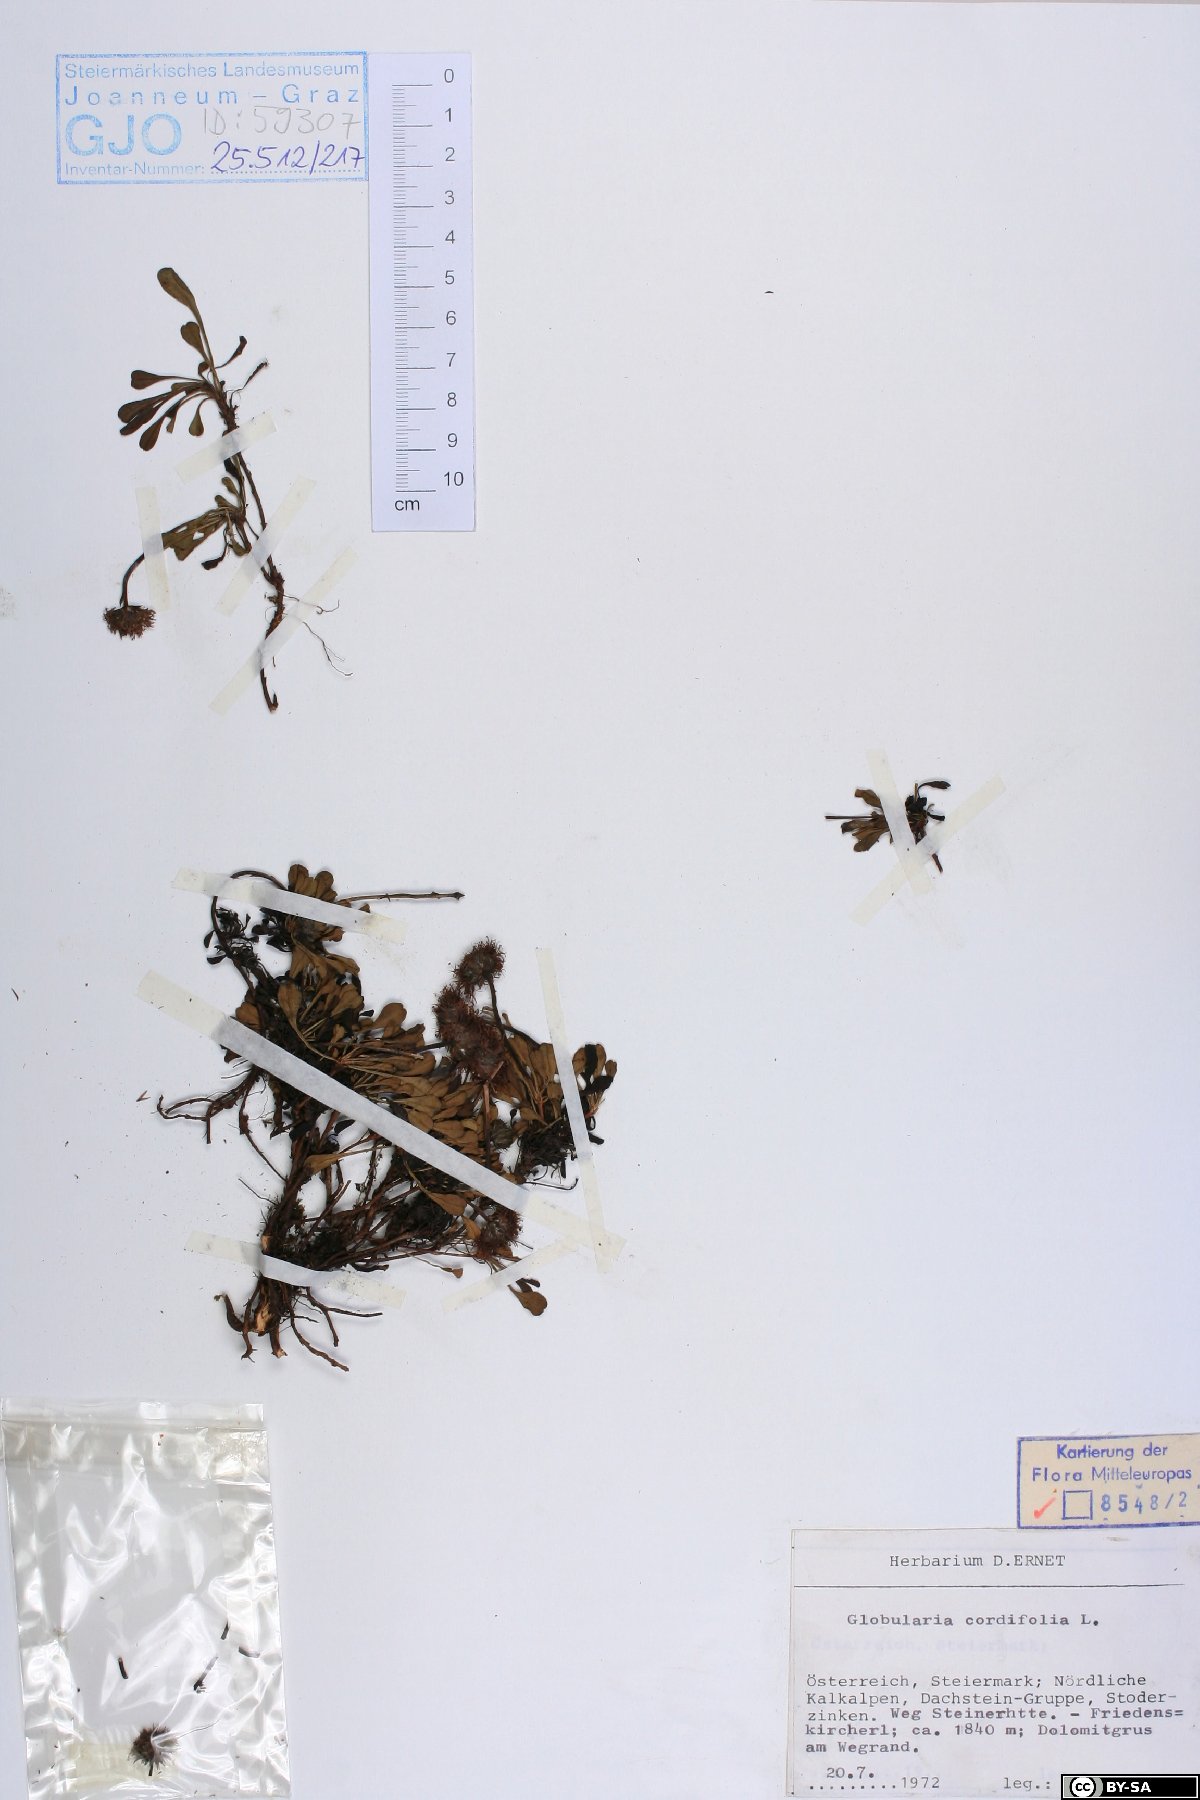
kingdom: Plantae
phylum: Tracheophyta
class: Magnoliopsida
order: Lamiales
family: Plantaginaceae
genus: Globularia
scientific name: Globularia cordifolia
